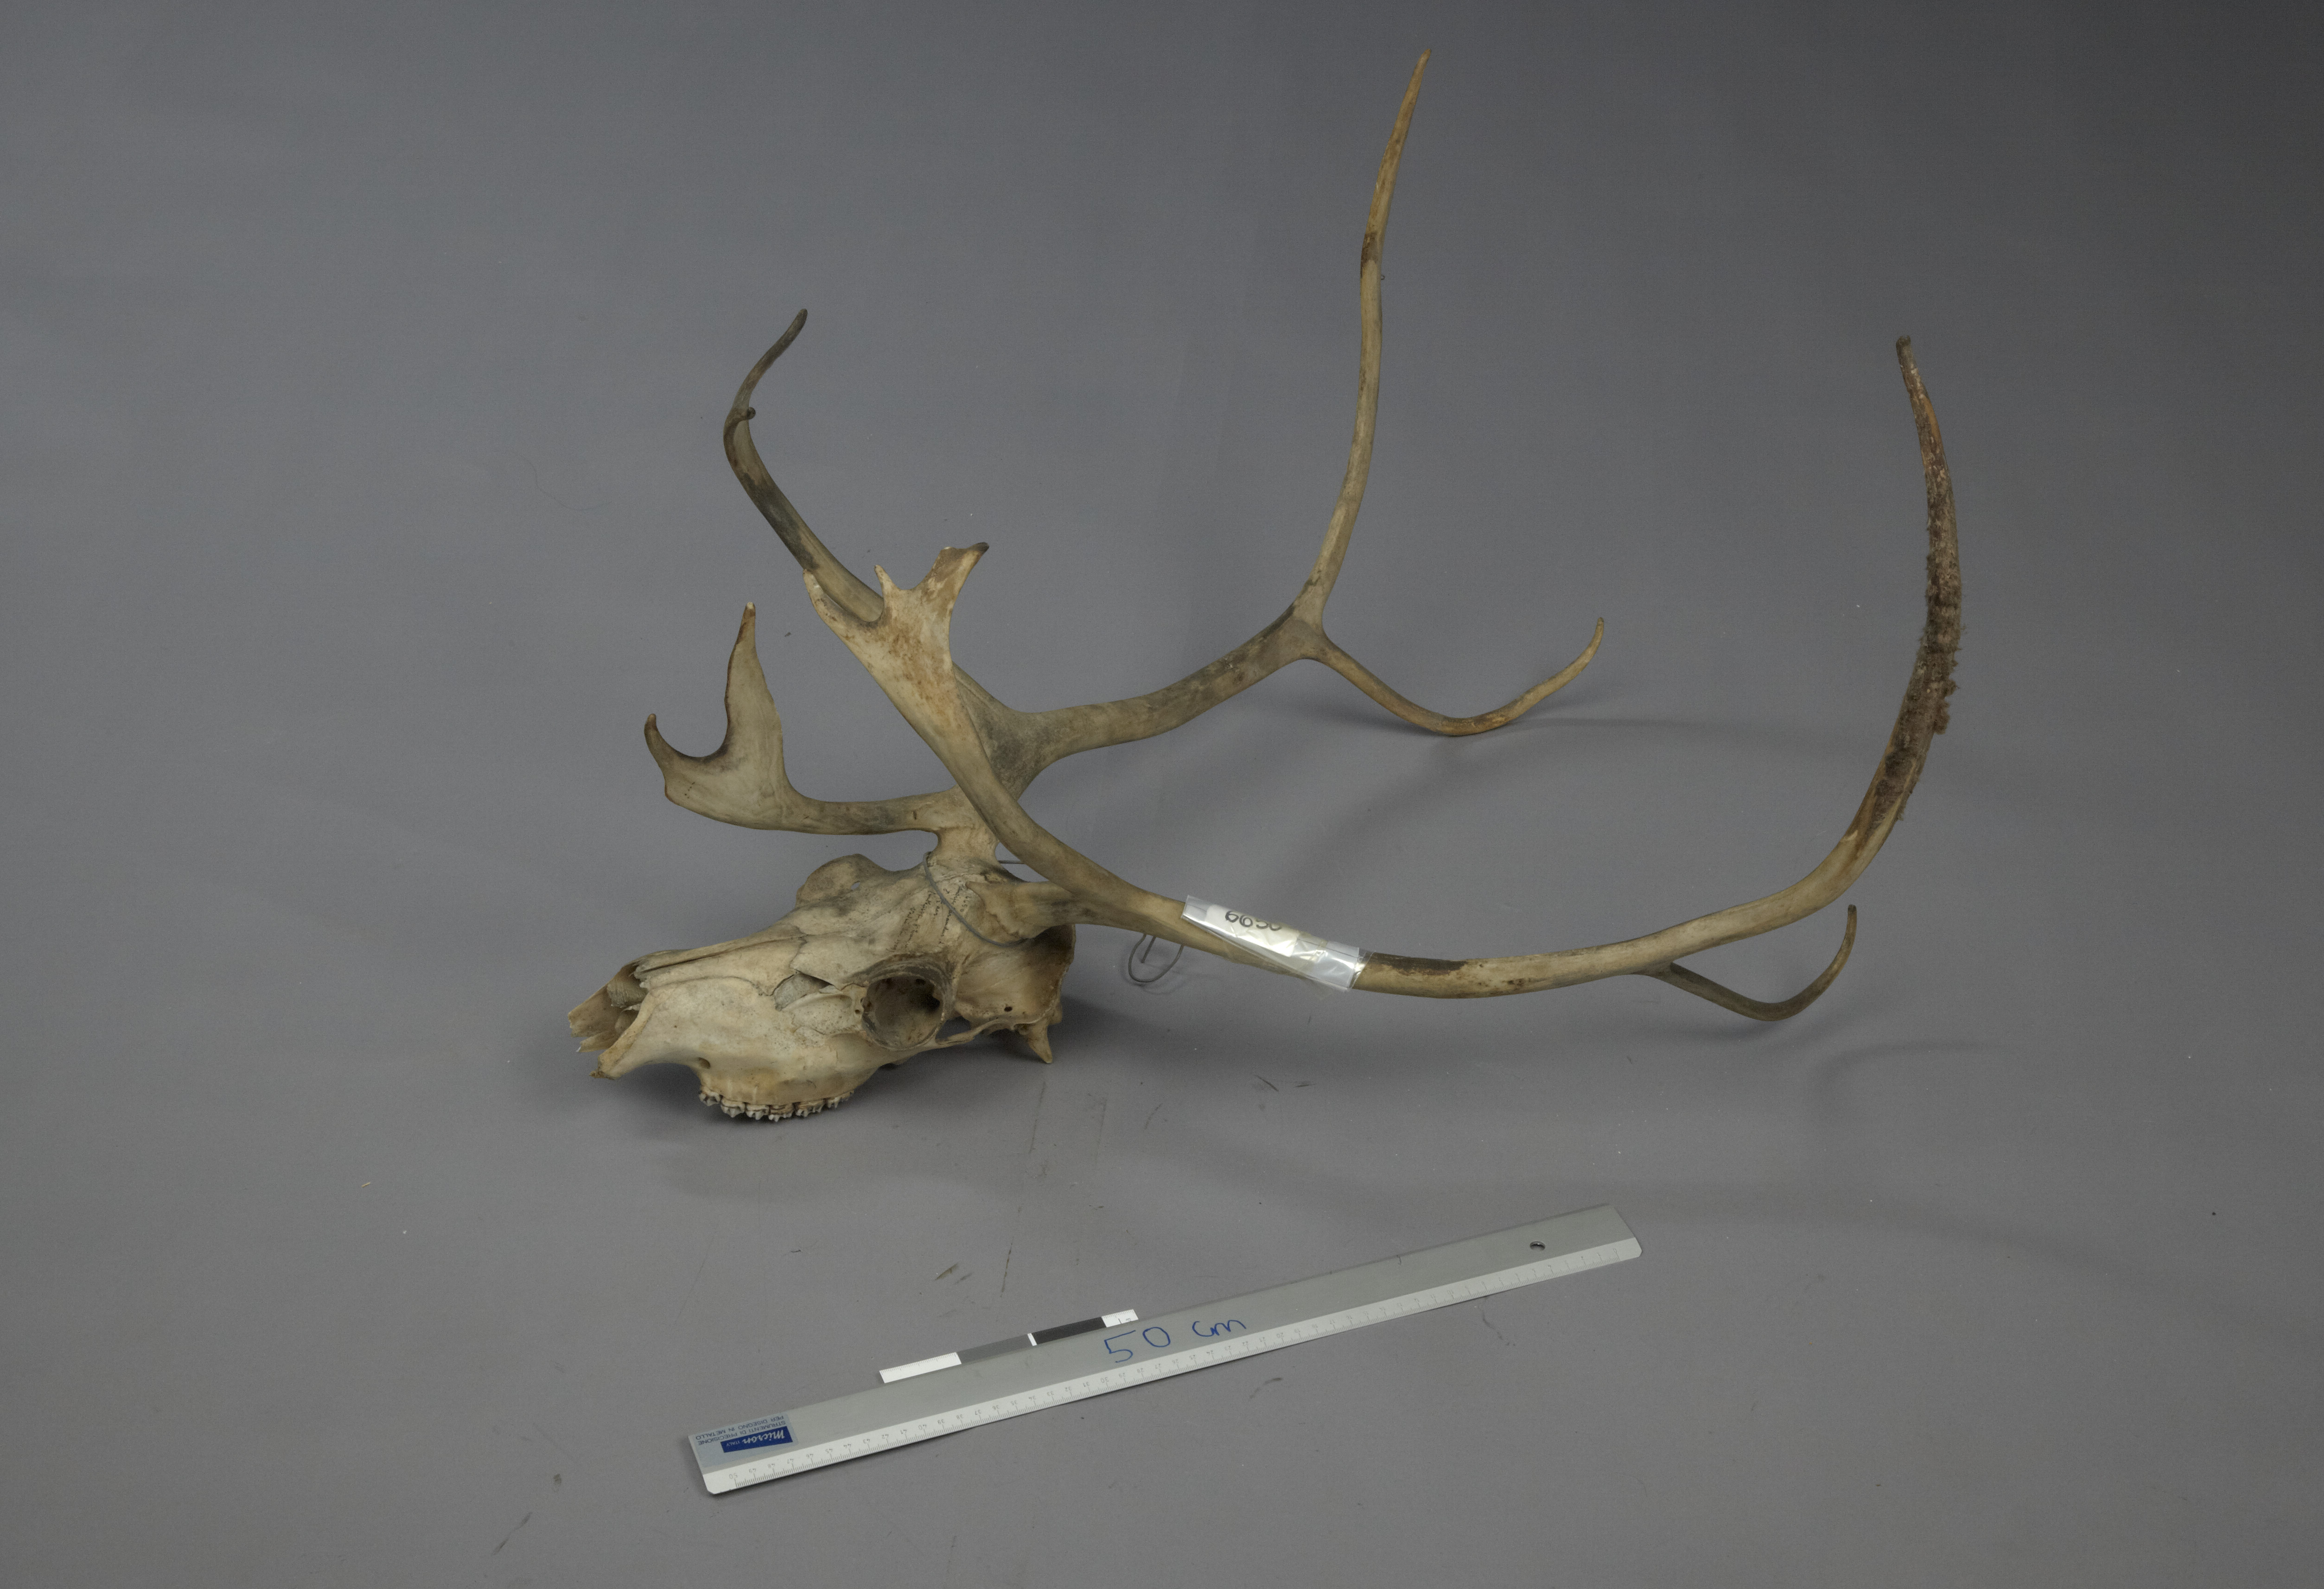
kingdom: Animalia
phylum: Chordata
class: Mammalia
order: Artiodactyla
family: Cervidae
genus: Rangifer
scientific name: Rangifer tarandus
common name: Reindeer
